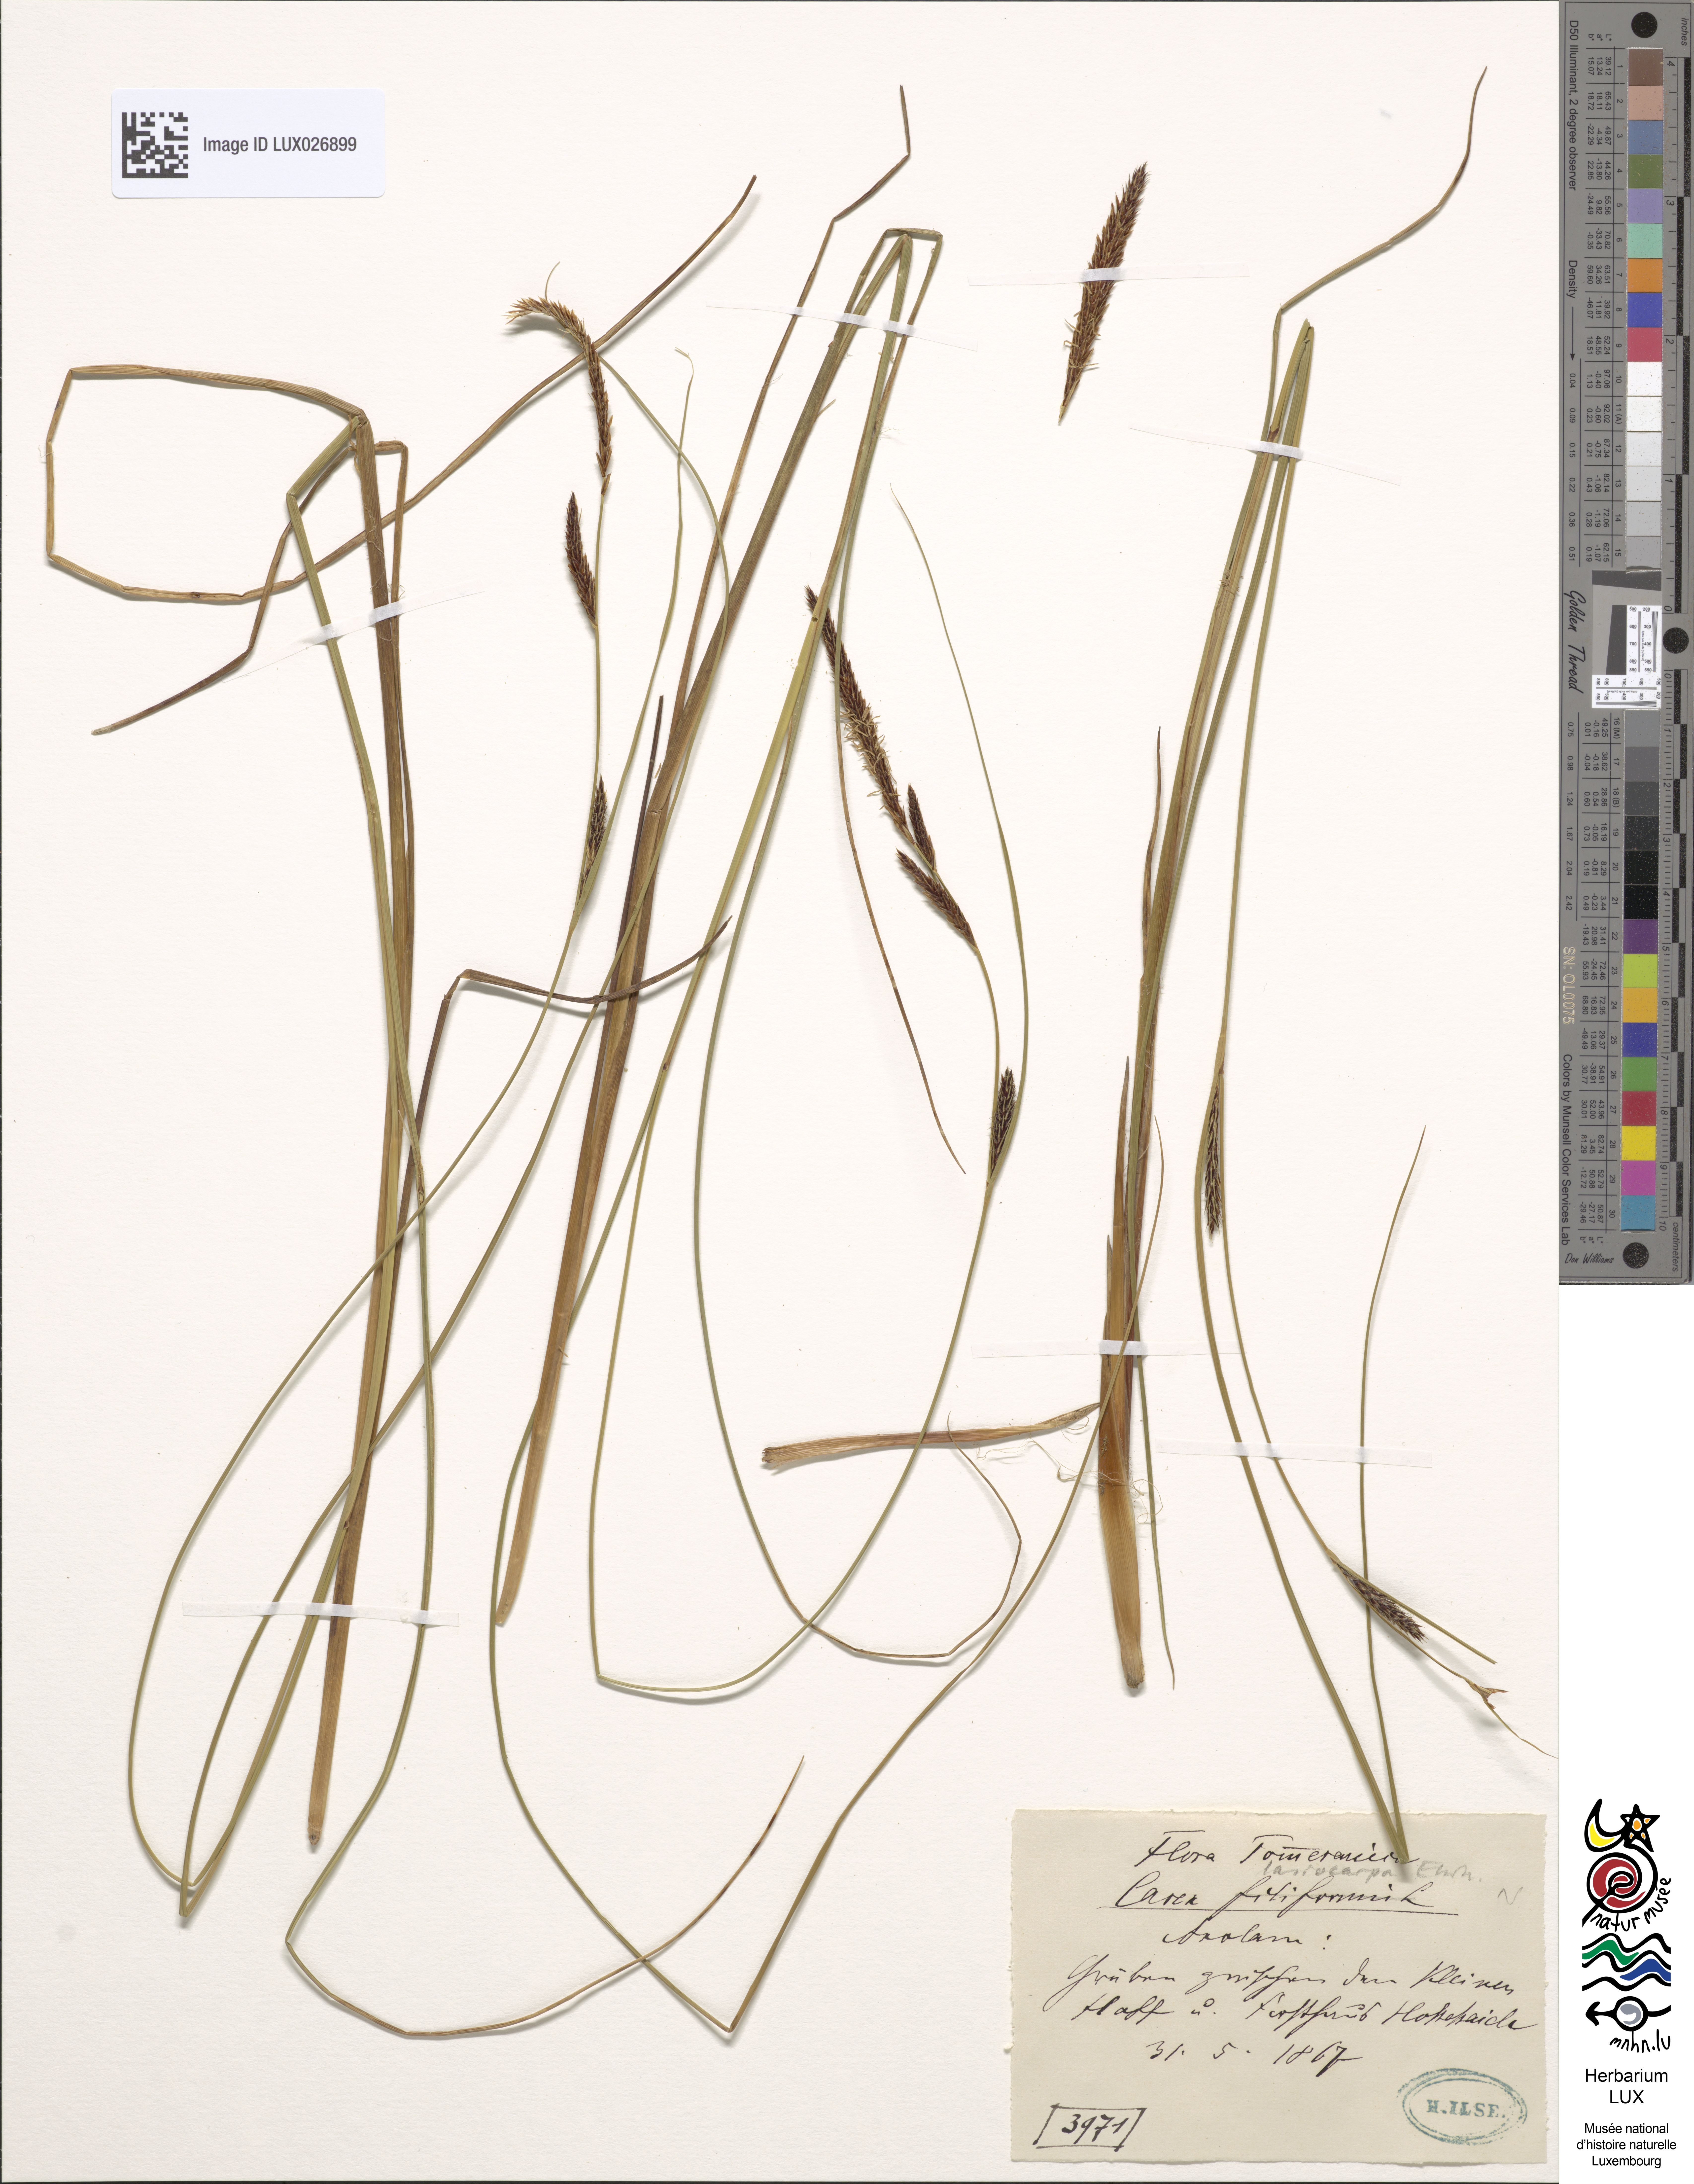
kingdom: Plantae
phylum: Tracheophyta
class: Liliopsida
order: Poales
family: Cyperaceae
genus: Carex
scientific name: Carex lasiocarpa
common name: Slender sedge
